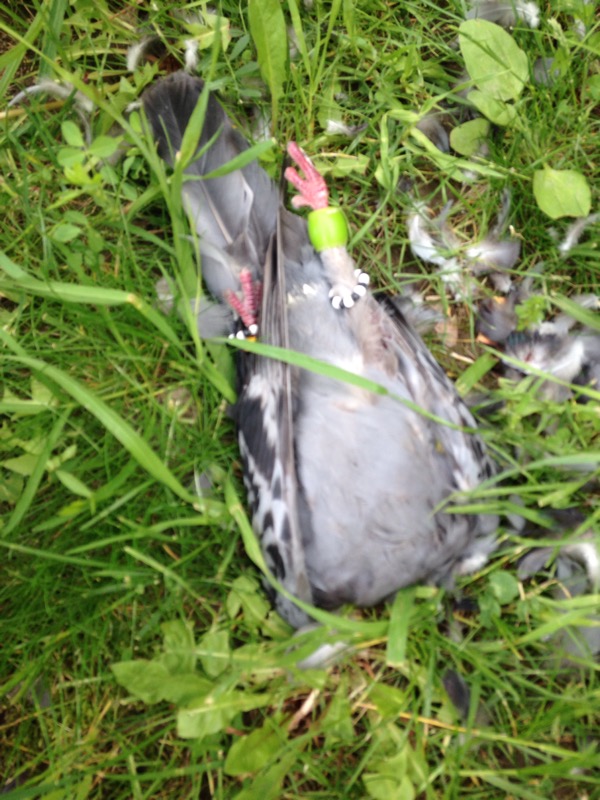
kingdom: Animalia
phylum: Chordata
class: Aves
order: Columbiformes
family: Columbidae
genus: Columba
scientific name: Columba livia
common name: Rock pigeon
